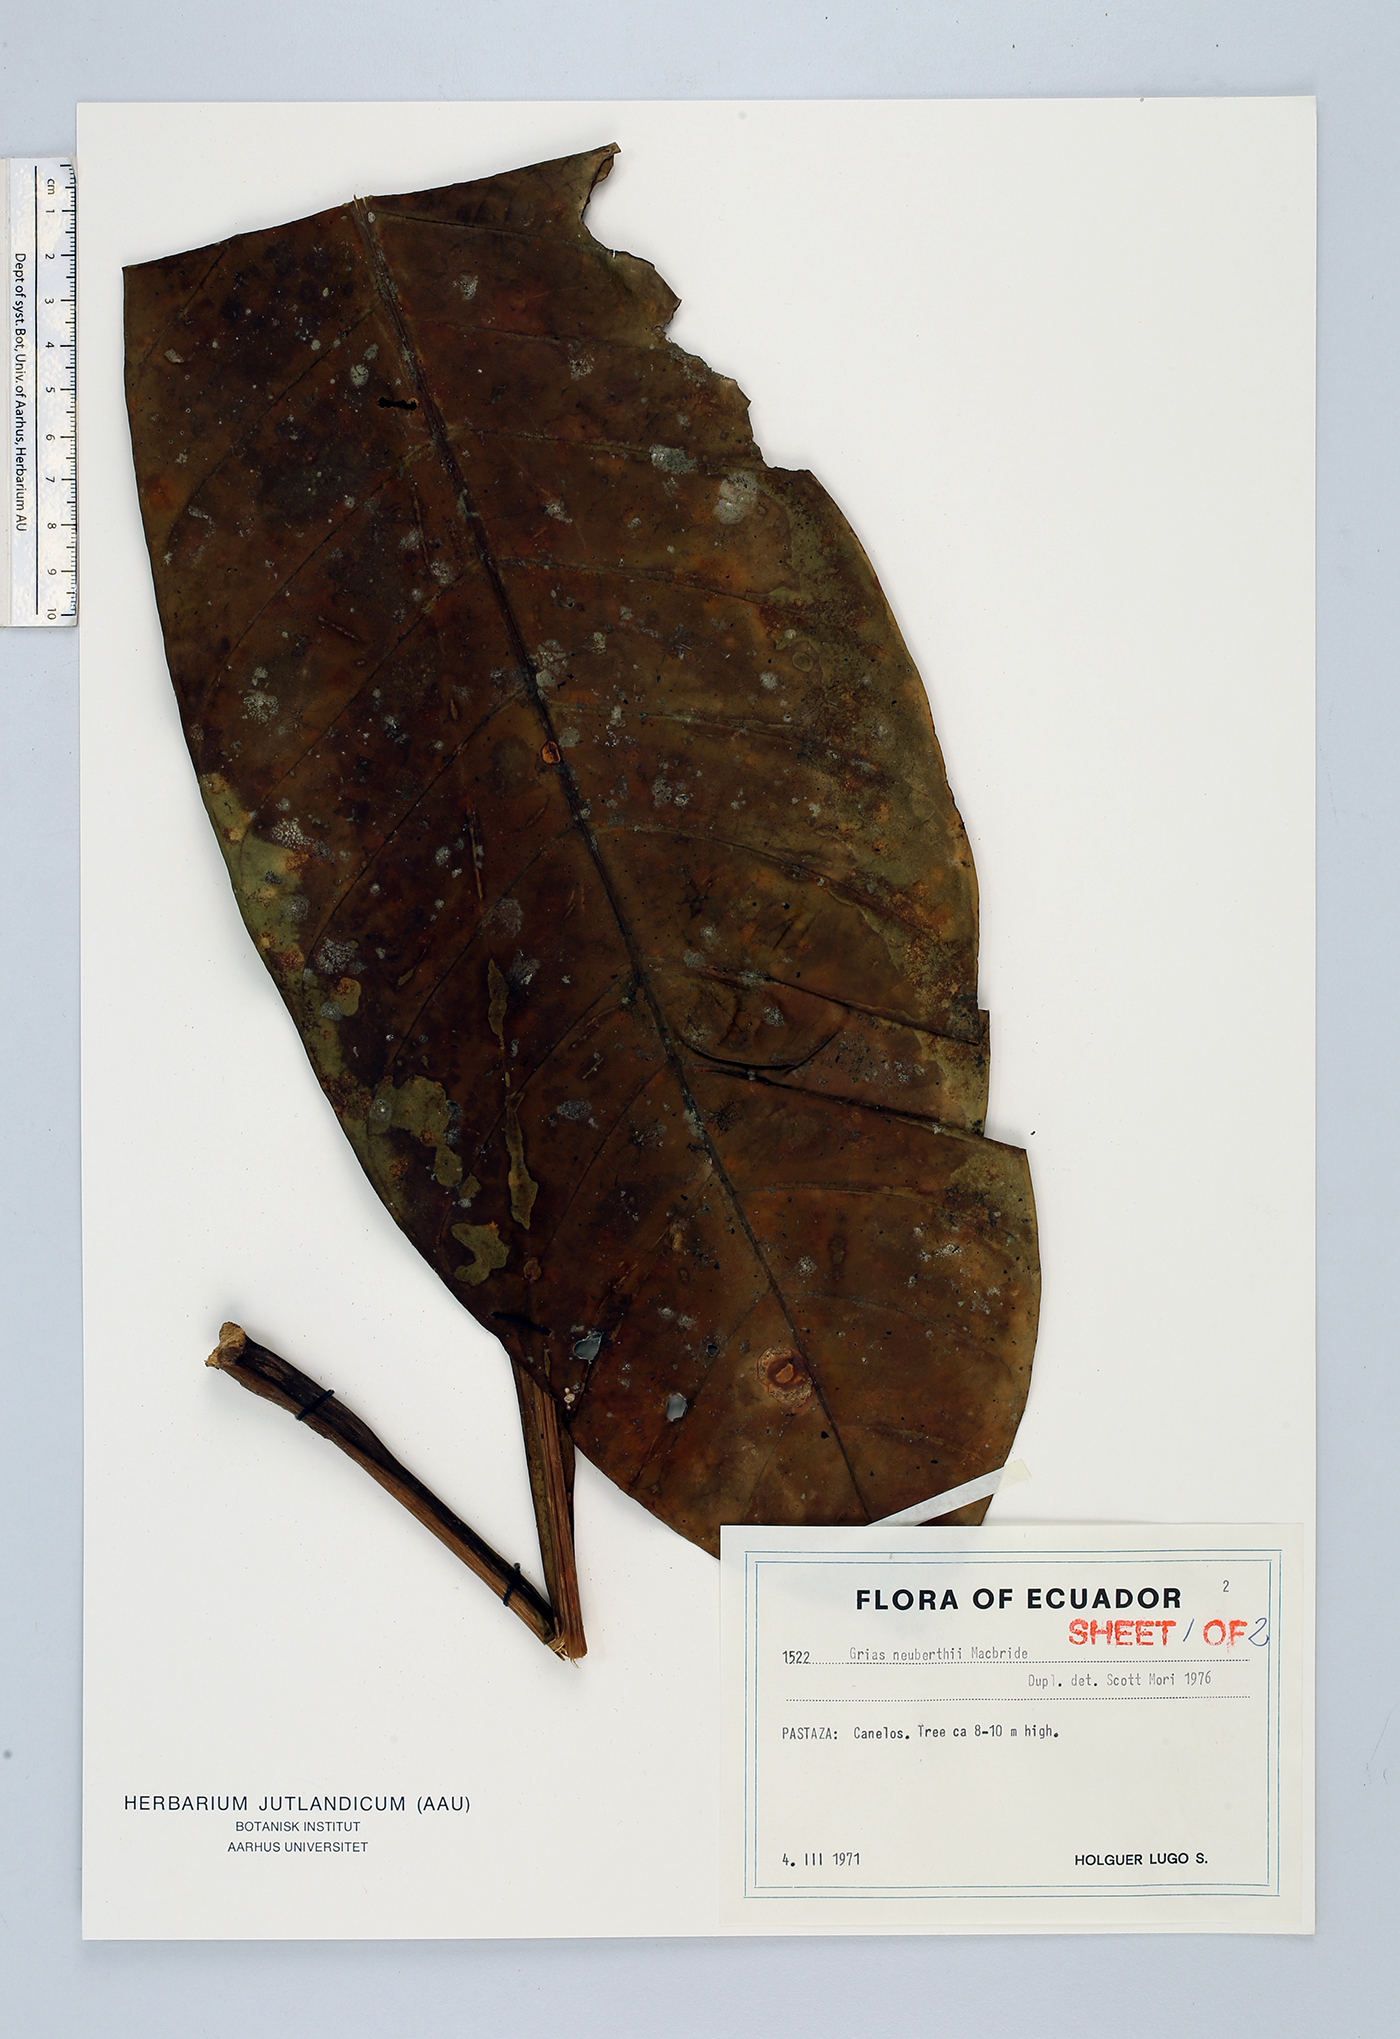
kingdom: Plantae
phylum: Tracheophyta
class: Magnoliopsida
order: Ericales
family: Lecythidaceae
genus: Grias
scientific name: Grias neuberthii
